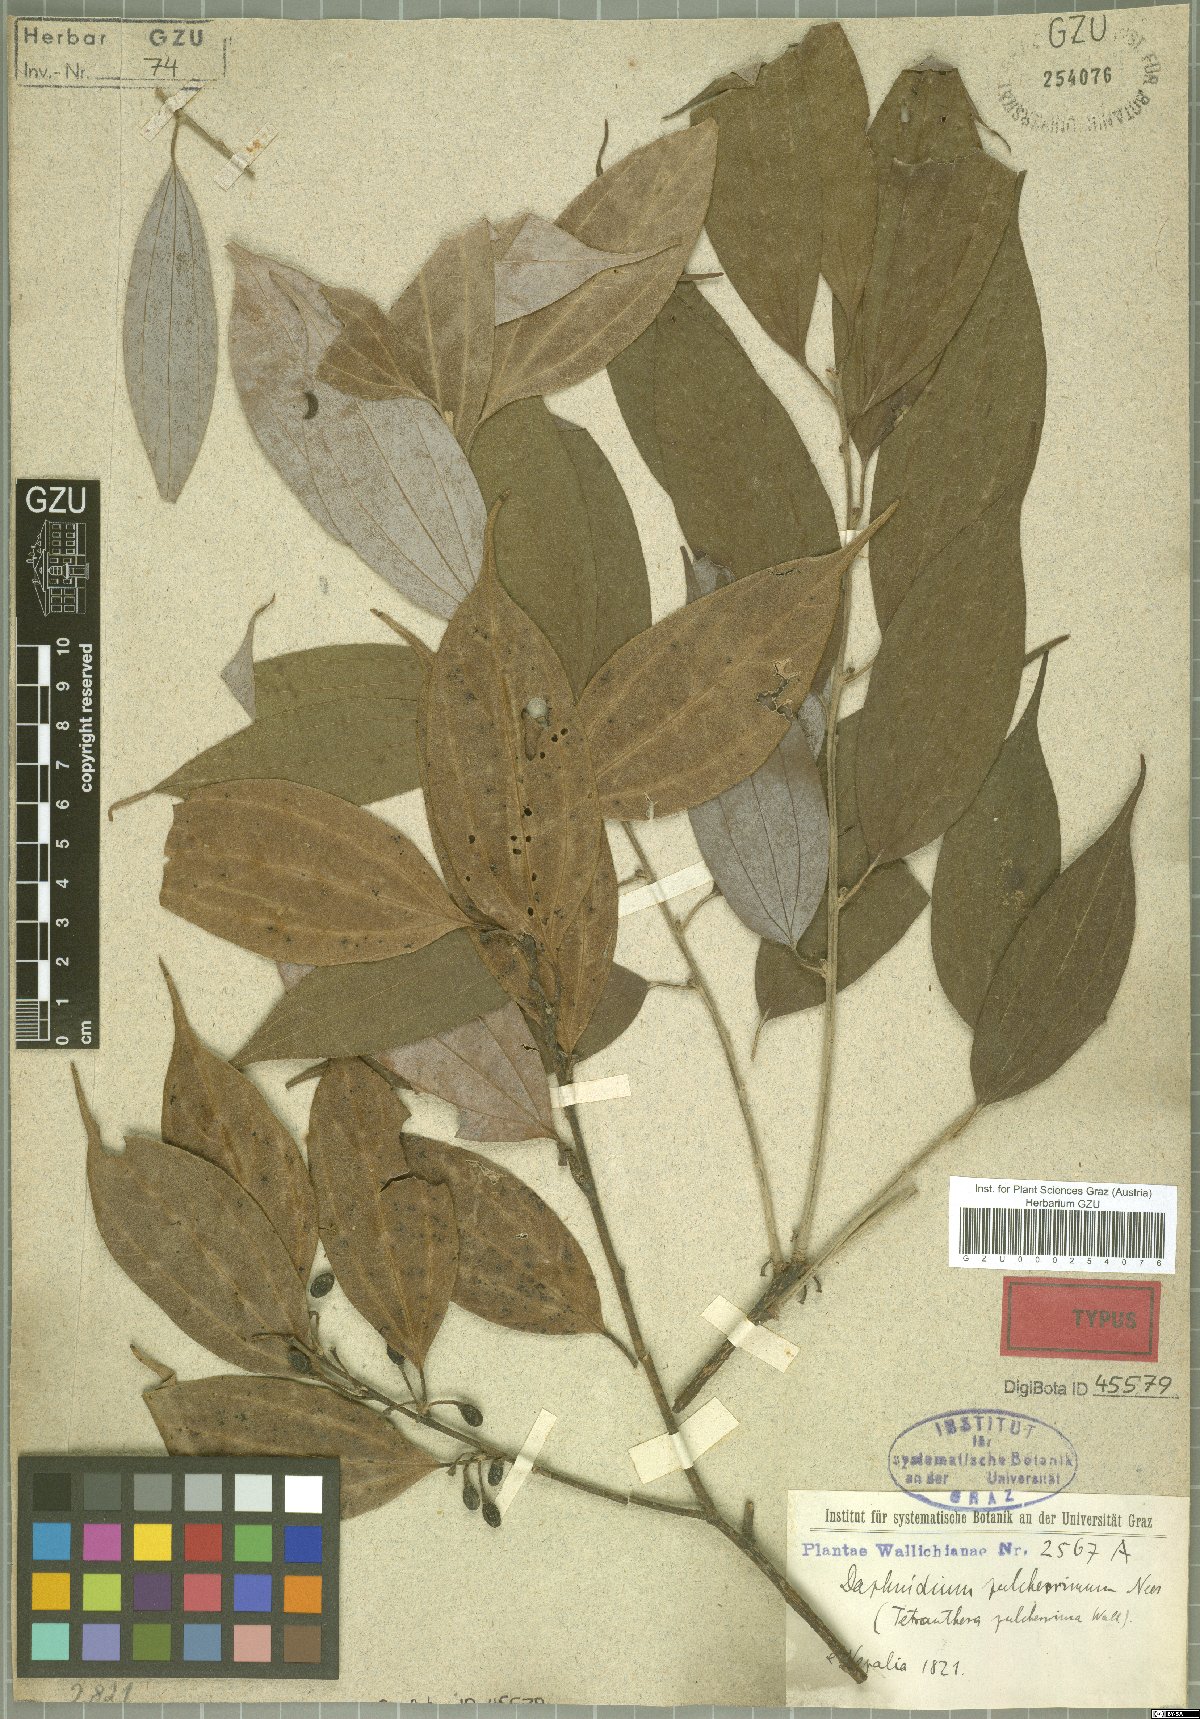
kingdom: Plantae
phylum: Tracheophyta
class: Magnoliopsida
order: Laurales
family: Lauraceae
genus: Lindera
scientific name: Lindera pulcherrima
